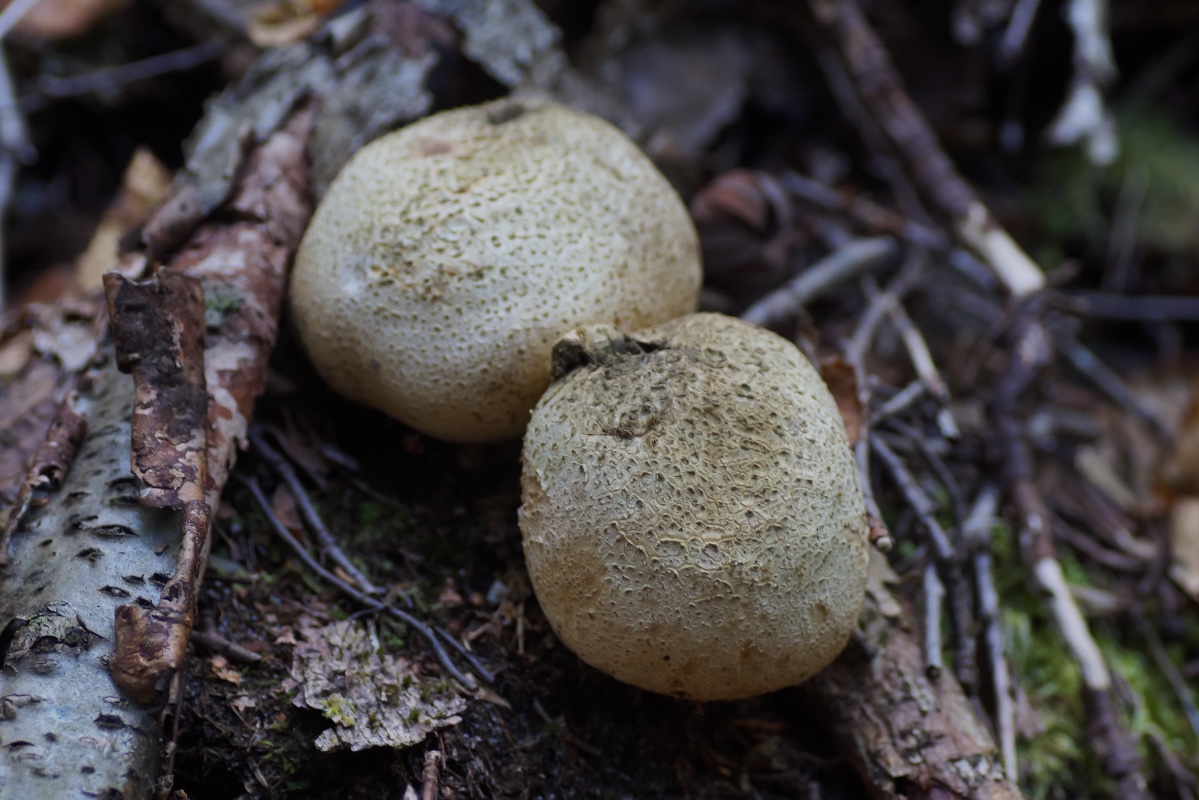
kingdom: Fungi
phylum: Basidiomycota
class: Agaricomycetes
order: Boletales
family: Sclerodermataceae
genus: Scleroderma
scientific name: Scleroderma citrinum
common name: almindelig bruskbold
